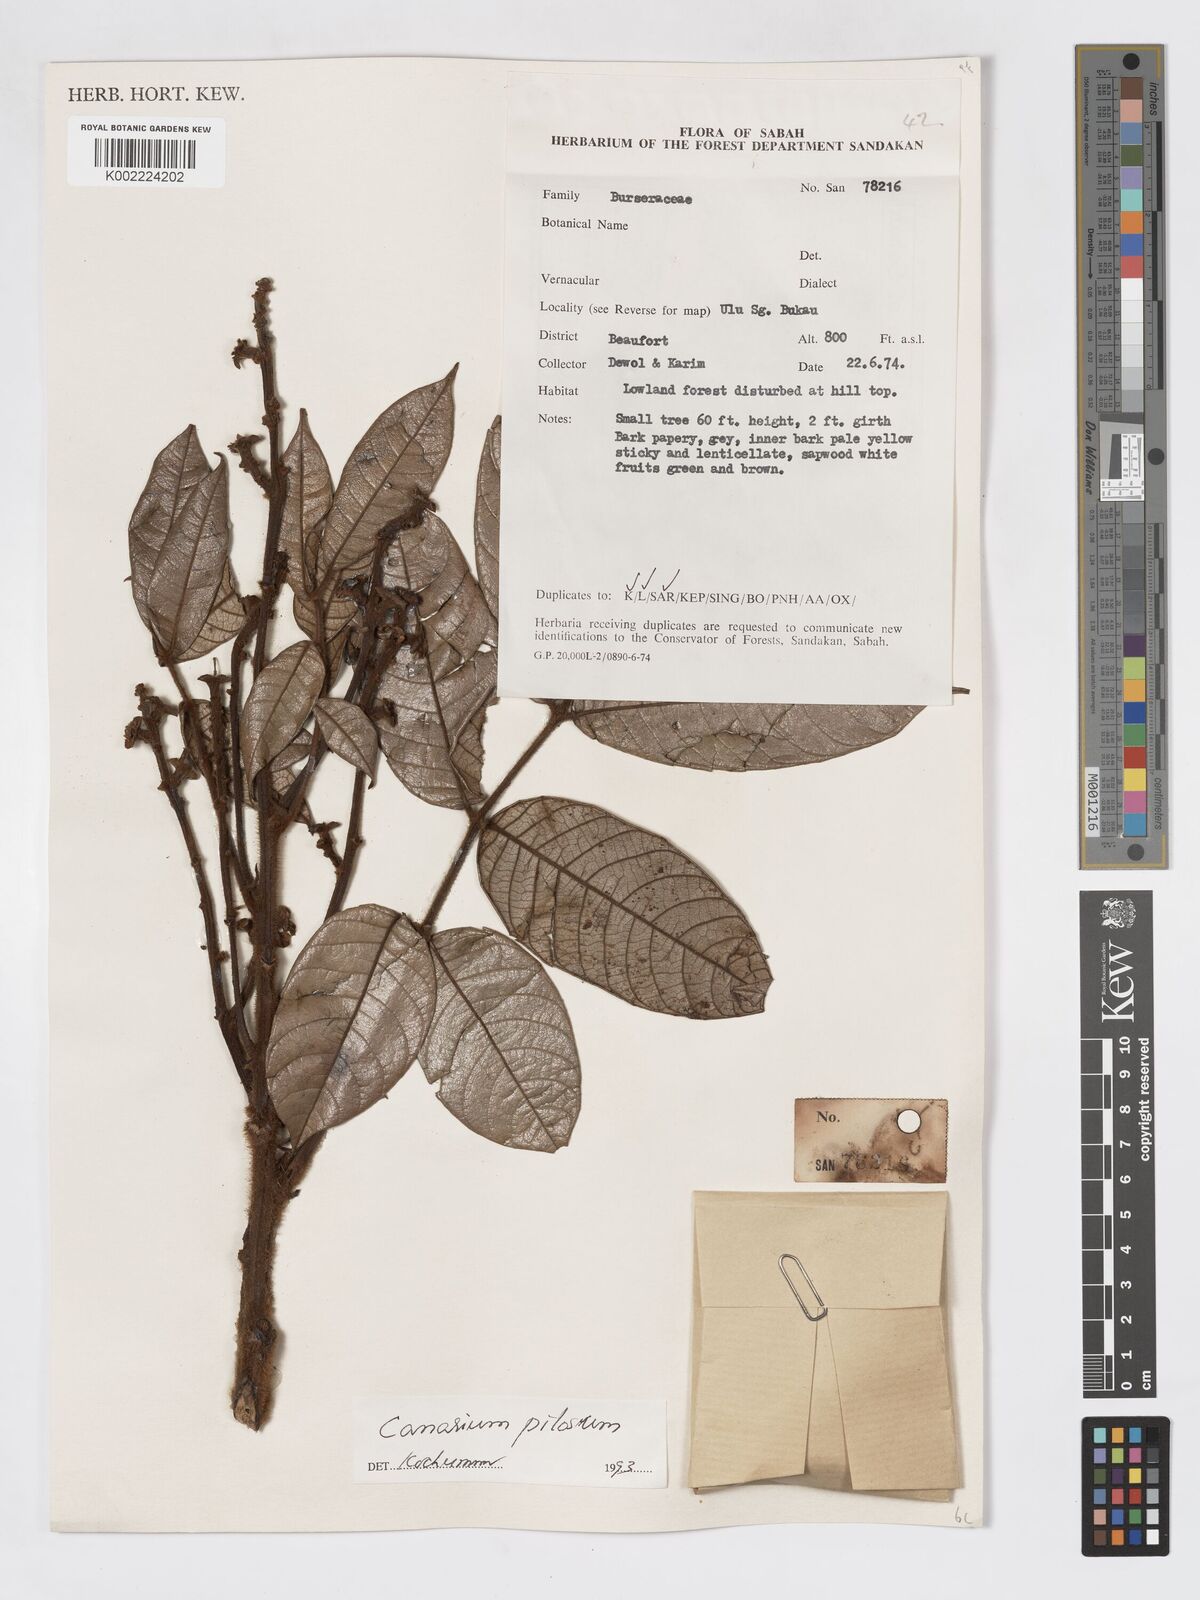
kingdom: Plantae
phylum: Tracheophyta
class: Magnoliopsida
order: Sapindales
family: Burseraceae
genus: Canarium
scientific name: Canarium pilosum
